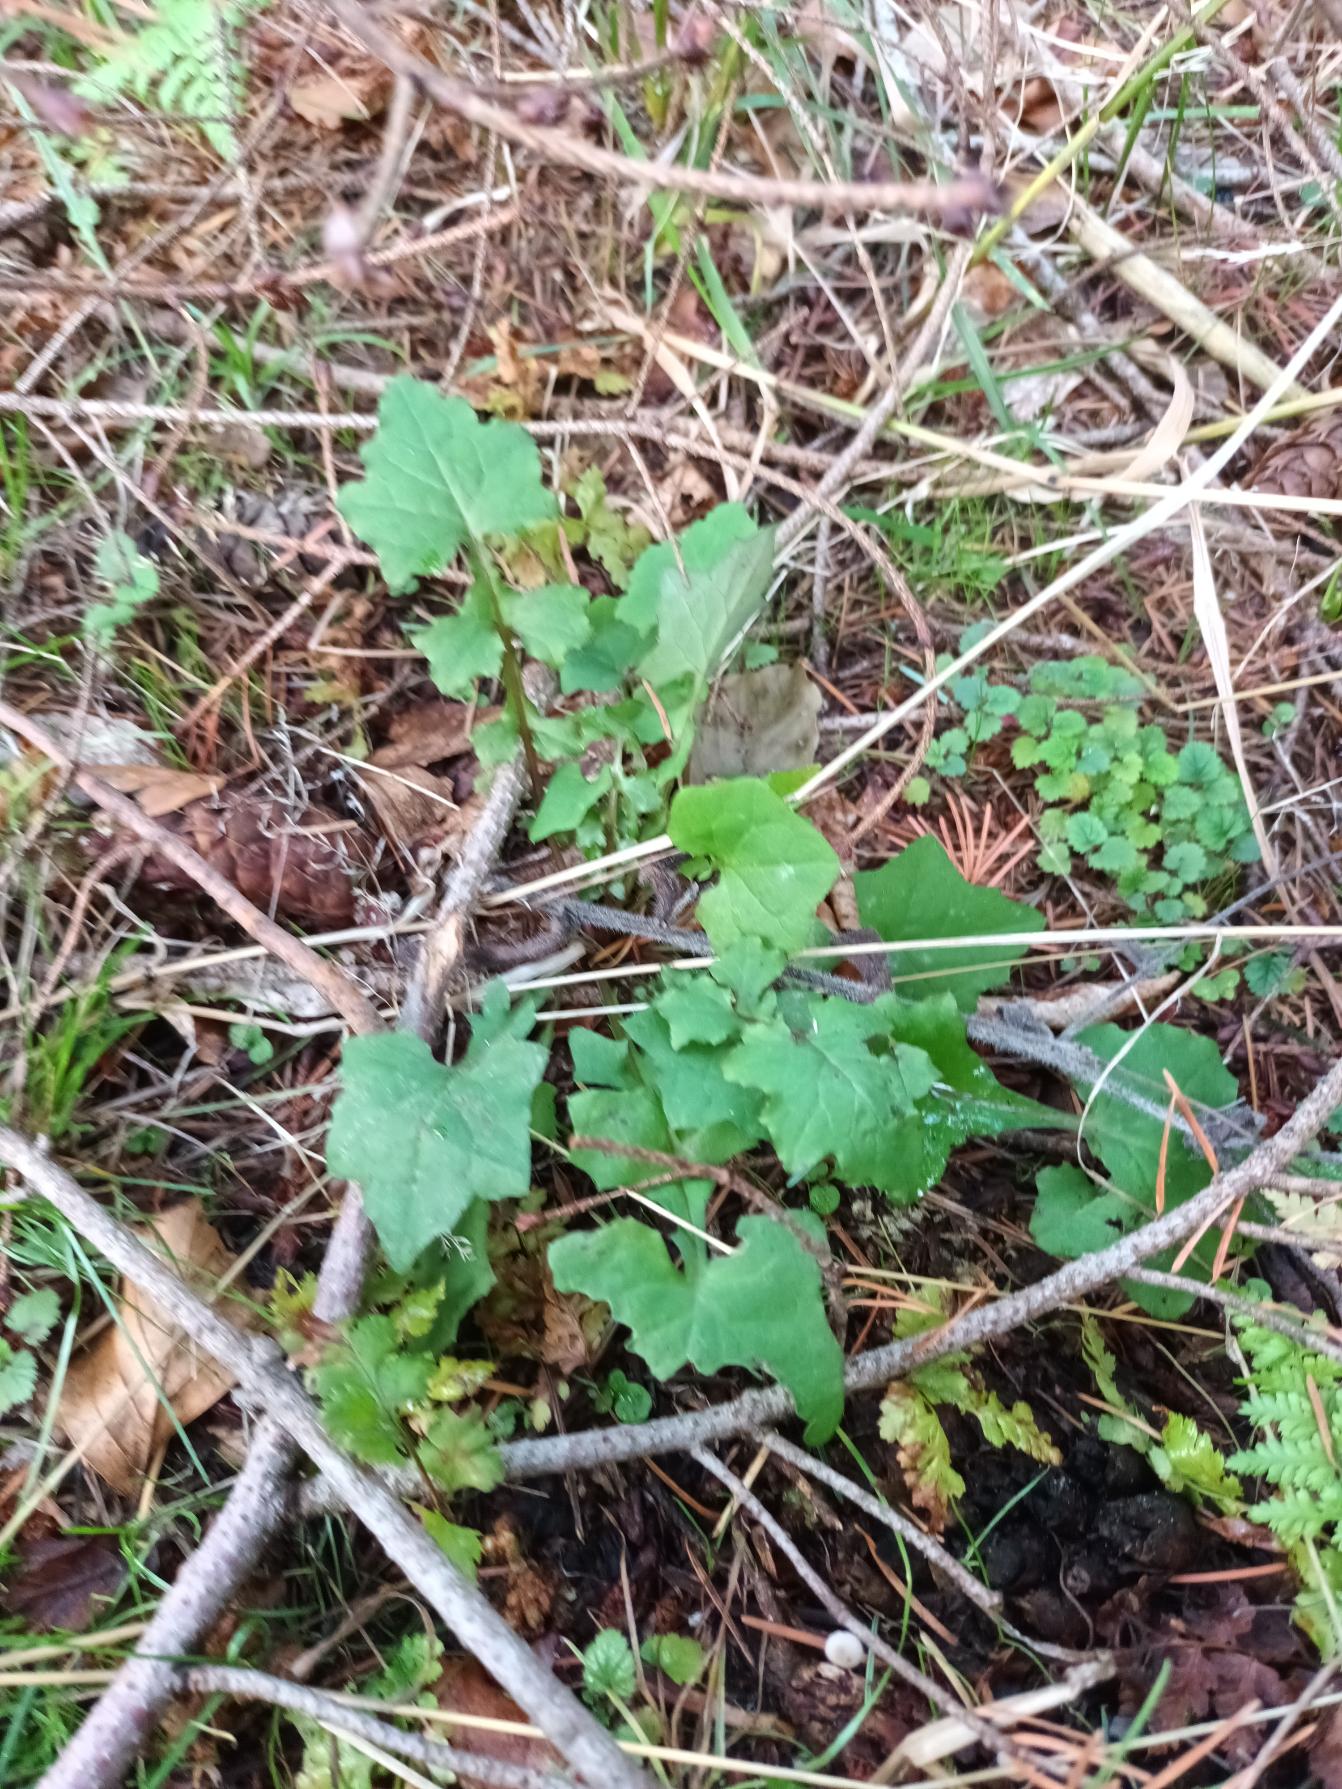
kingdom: Plantae
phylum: Tracheophyta
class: Magnoliopsida
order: Asterales
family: Asteraceae
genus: Mycelis
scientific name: Mycelis muralis
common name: Skov-salat
